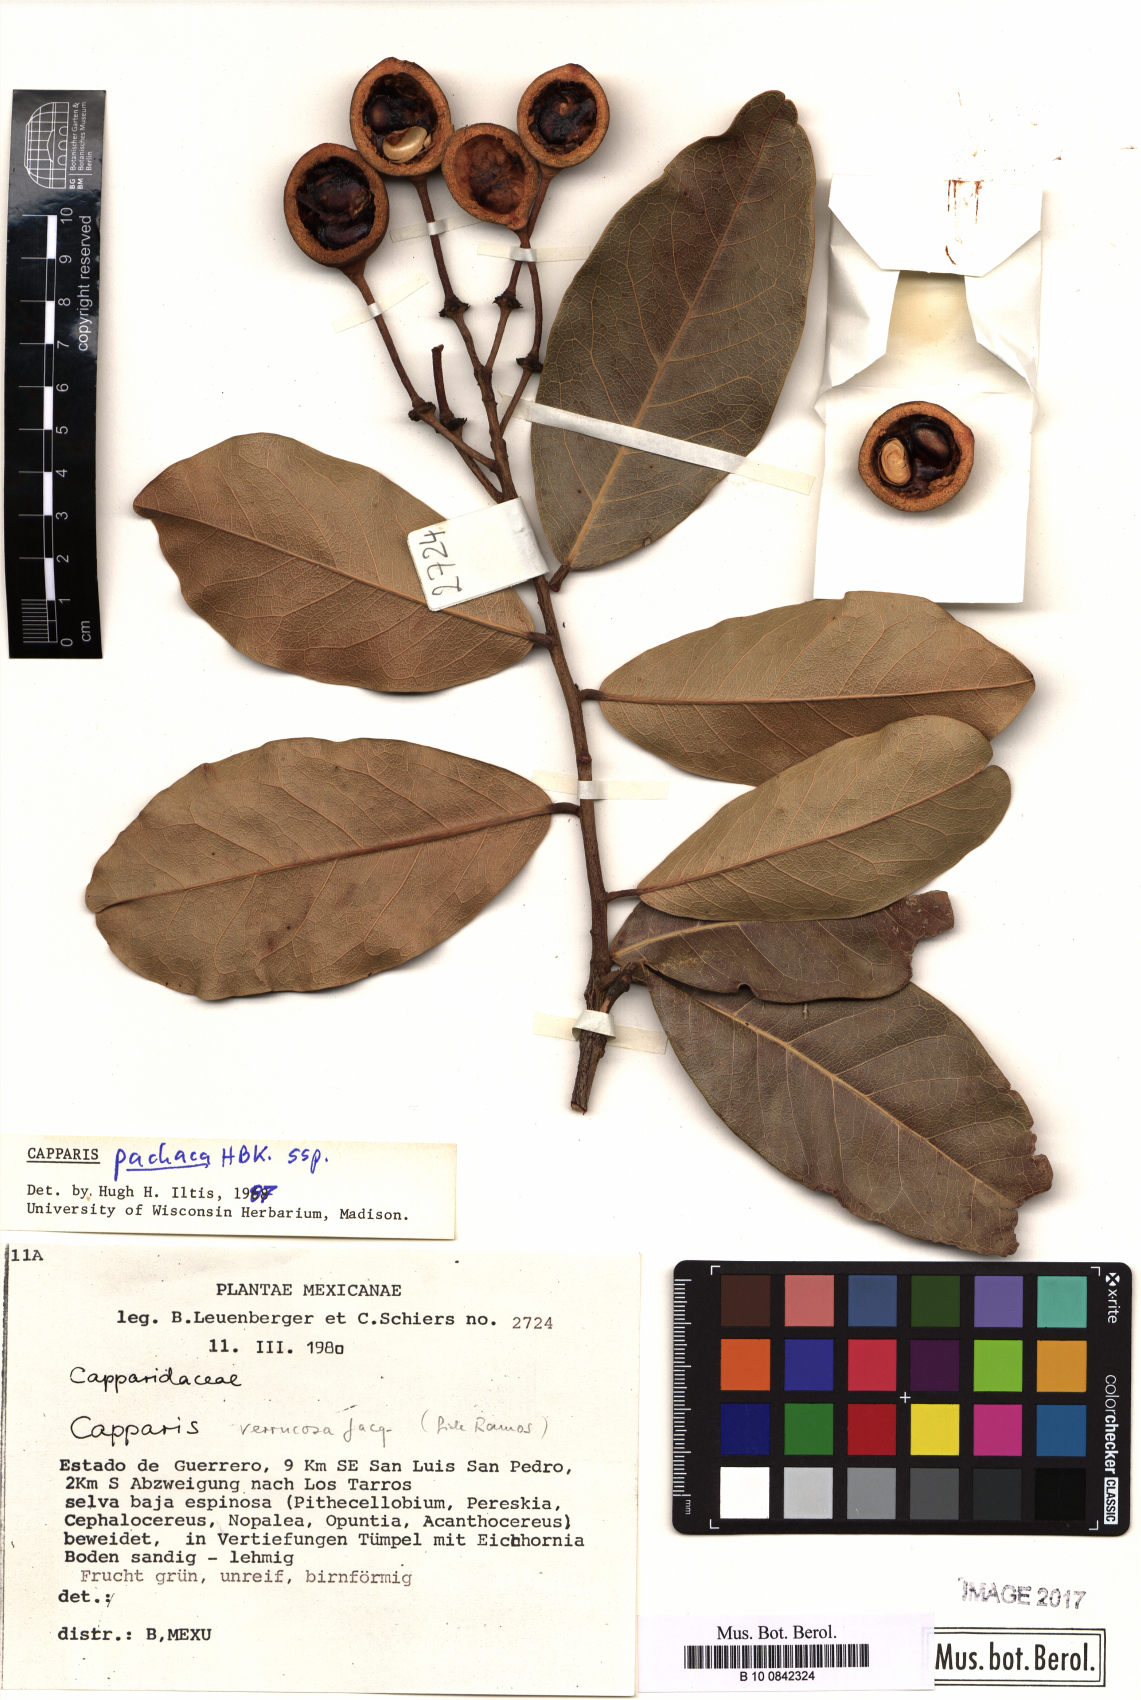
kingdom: Plantae
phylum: Tracheophyta
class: Magnoliopsida
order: Brassicales
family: Capparaceae
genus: Neocapparis
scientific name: Neocapparis pachaca
